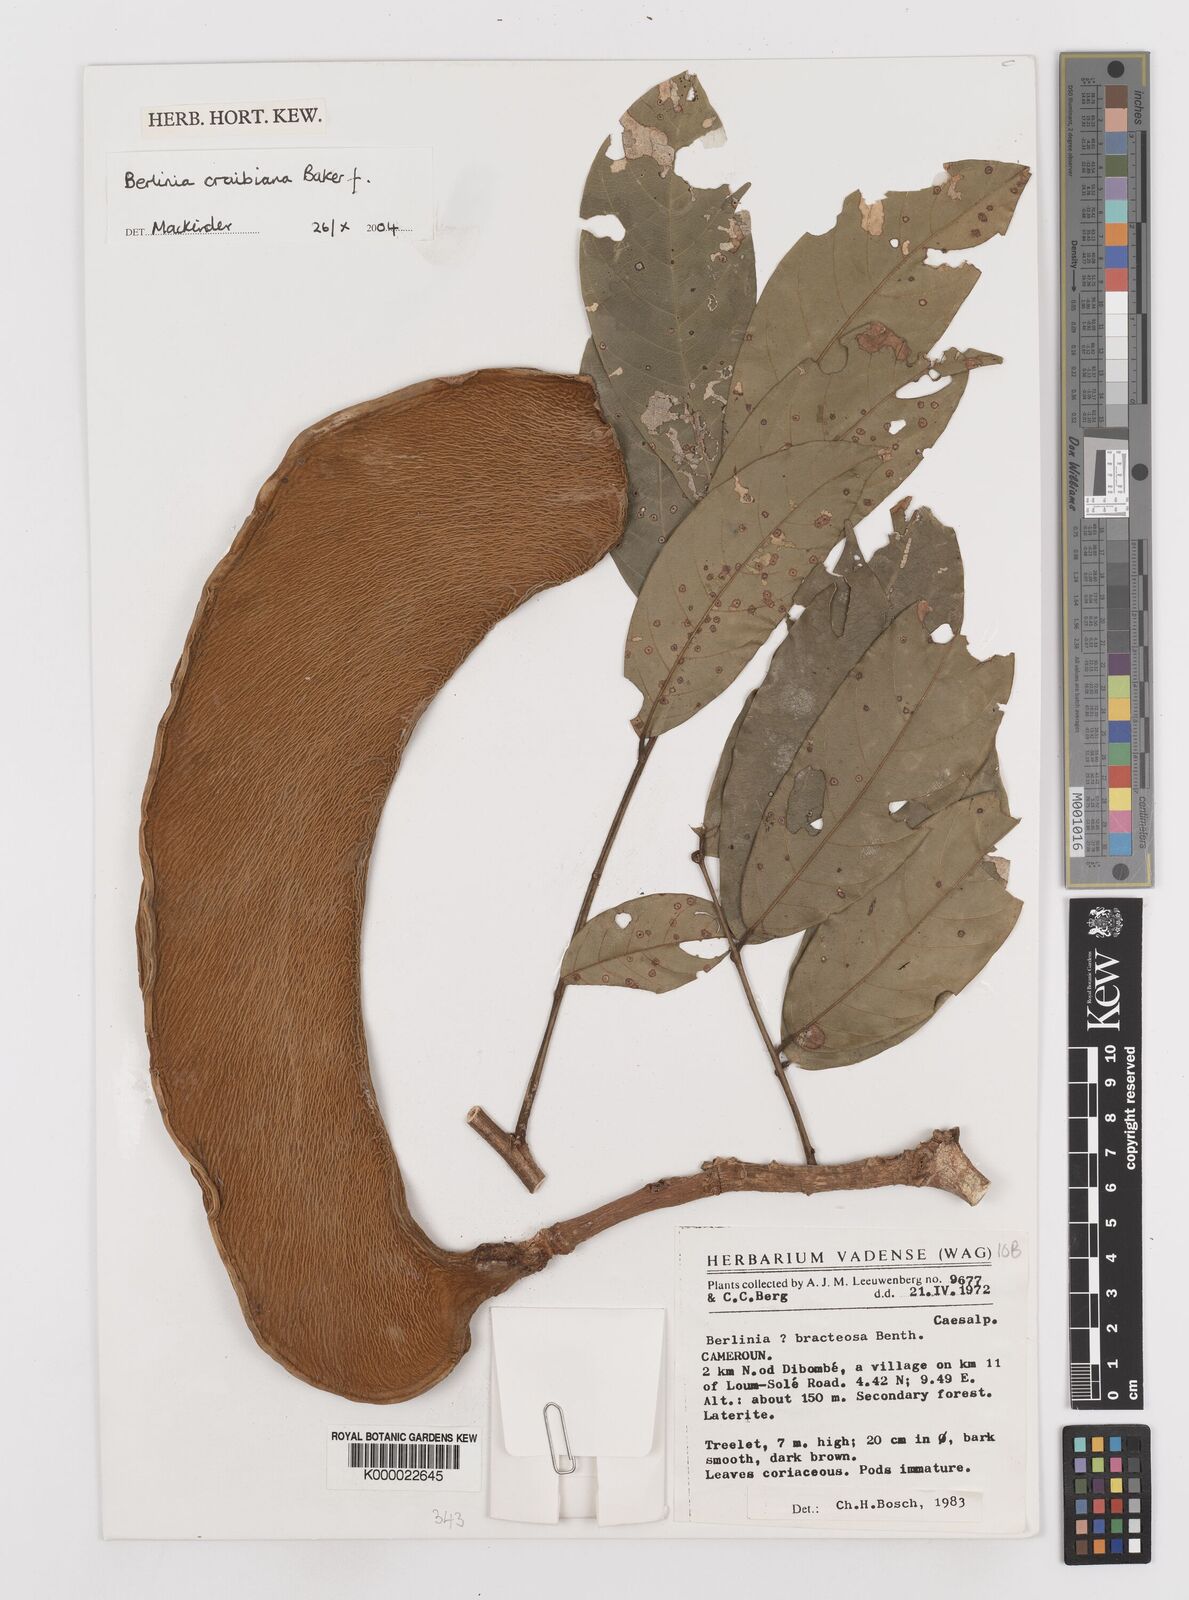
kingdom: Plantae
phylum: Tracheophyta
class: Magnoliopsida
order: Fabales
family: Fabaceae
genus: Berlinia
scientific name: Berlinia craibiana
